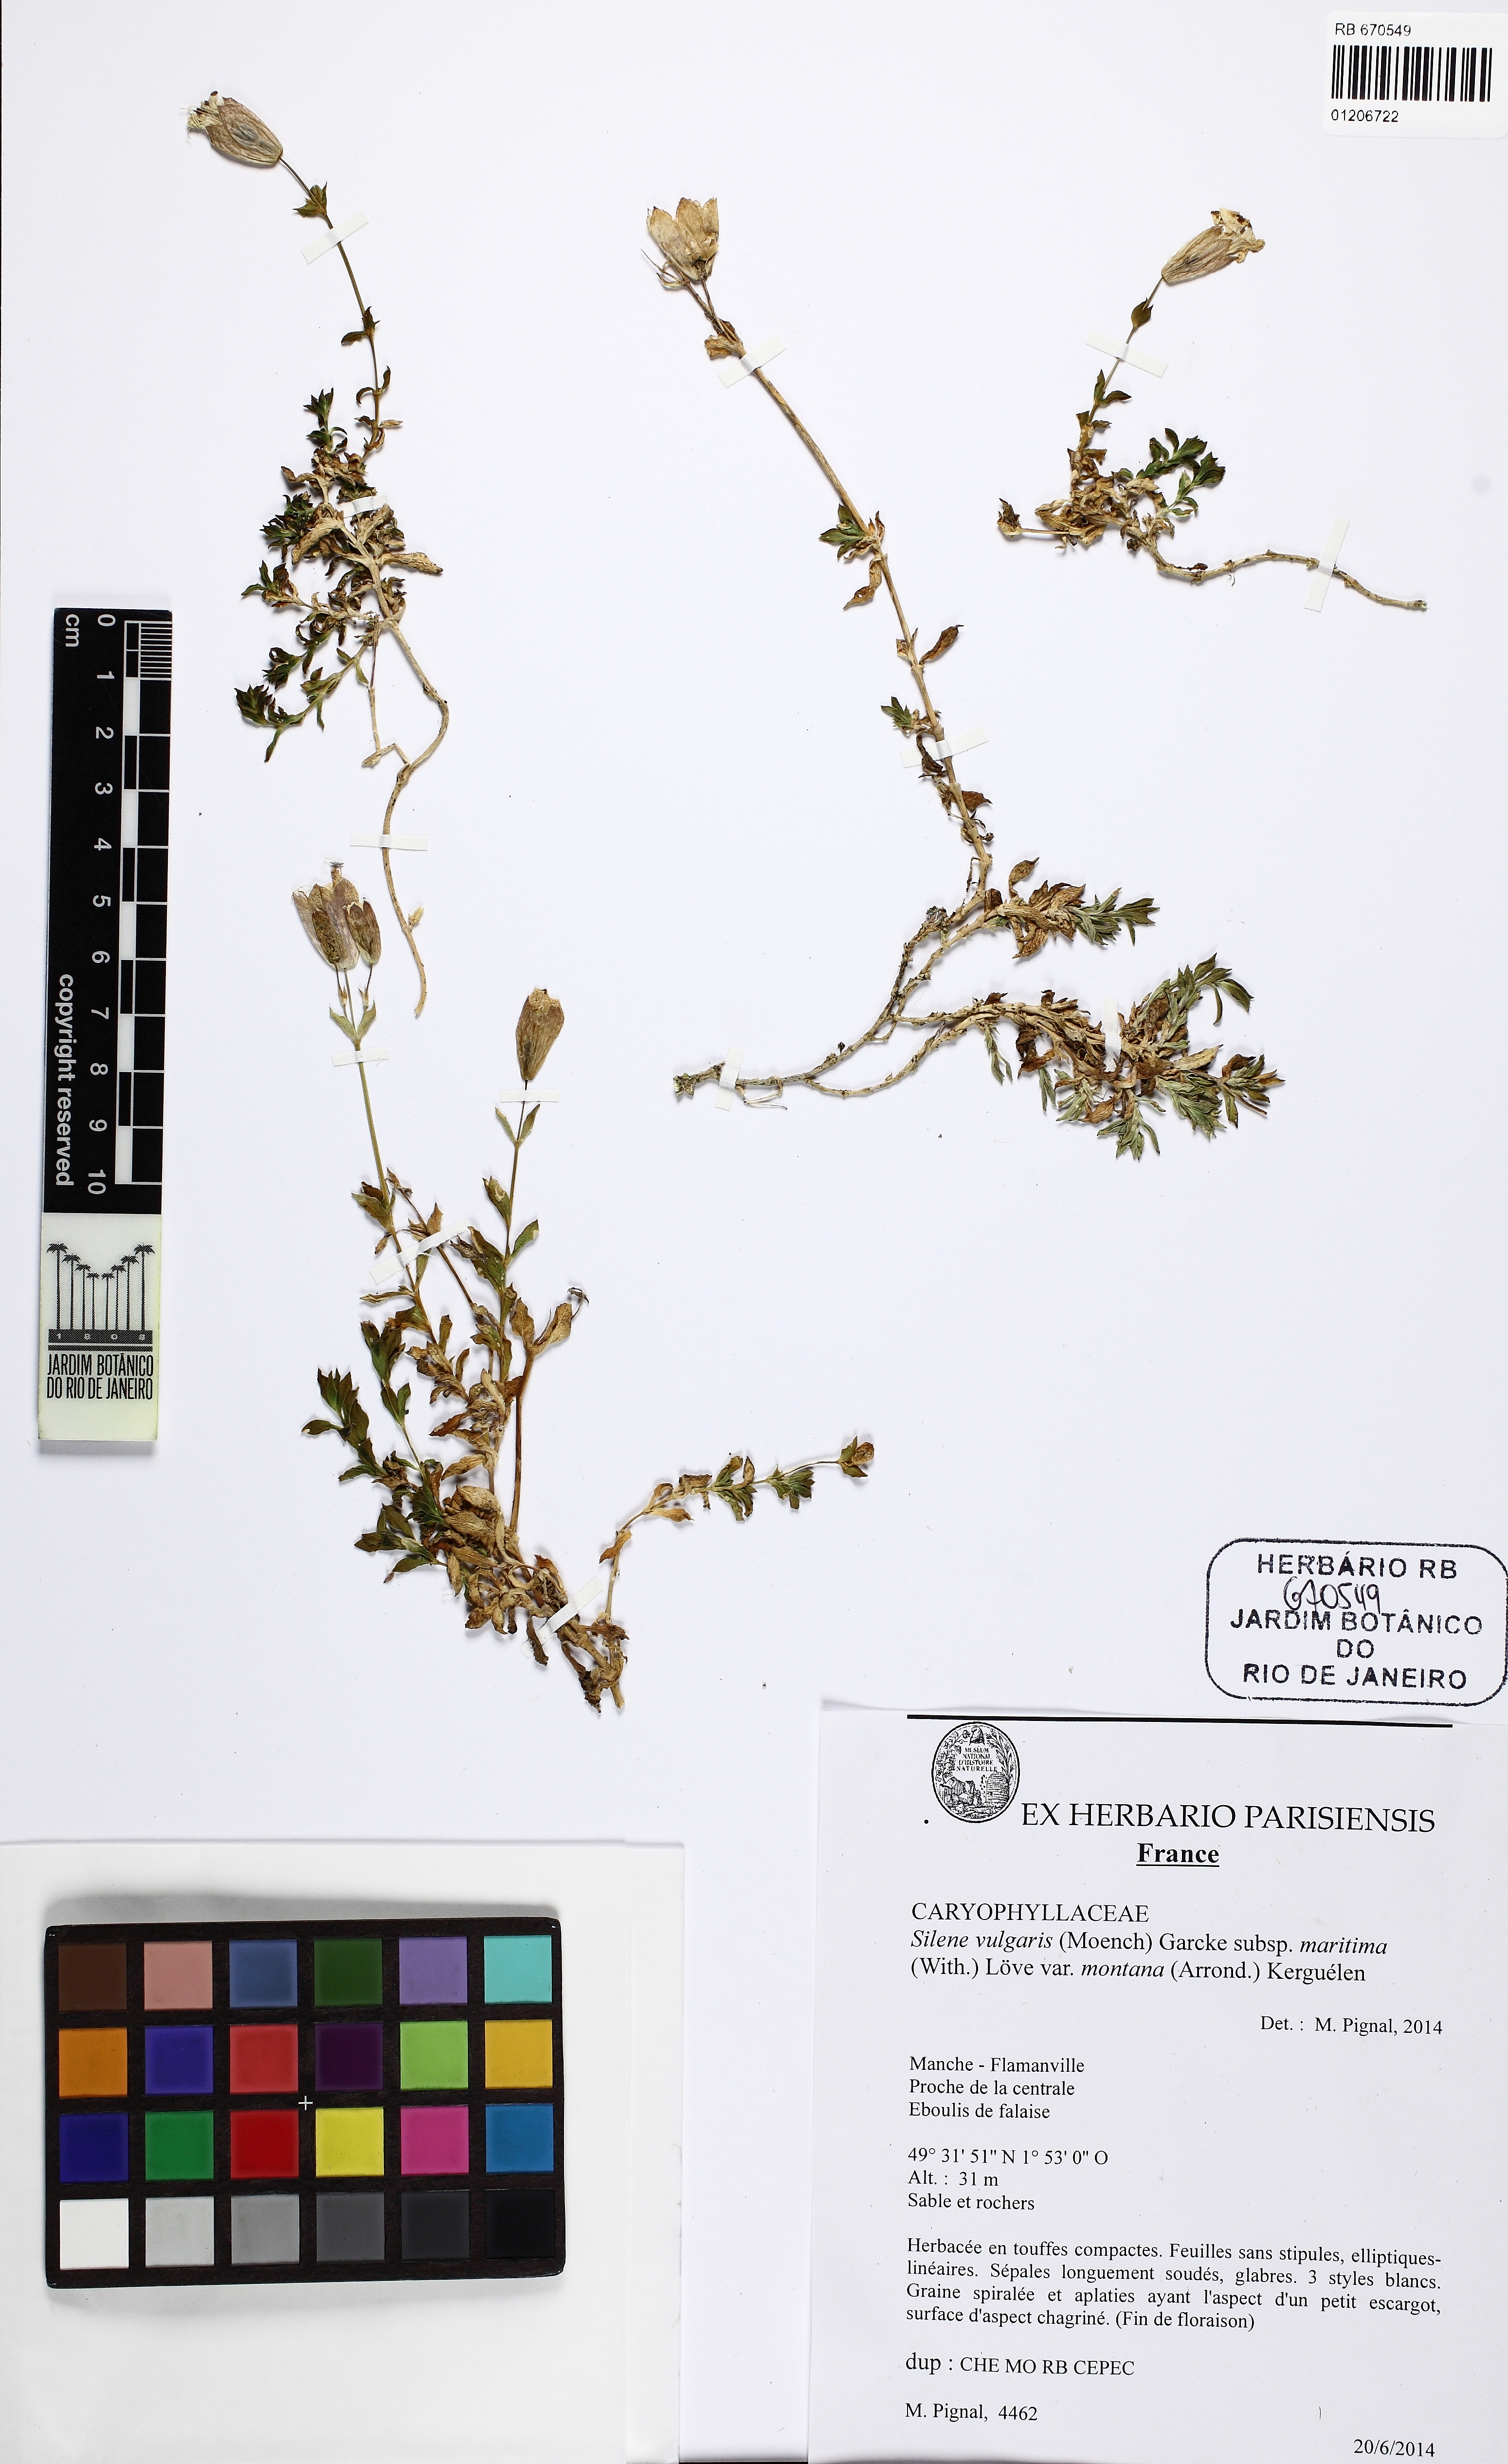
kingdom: Plantae
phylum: Tracheophyta
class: Magnoliopsida
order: Caryophyllales
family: Caryophyllaceae
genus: Silene
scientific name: Silene uniflora
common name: Sea campion
